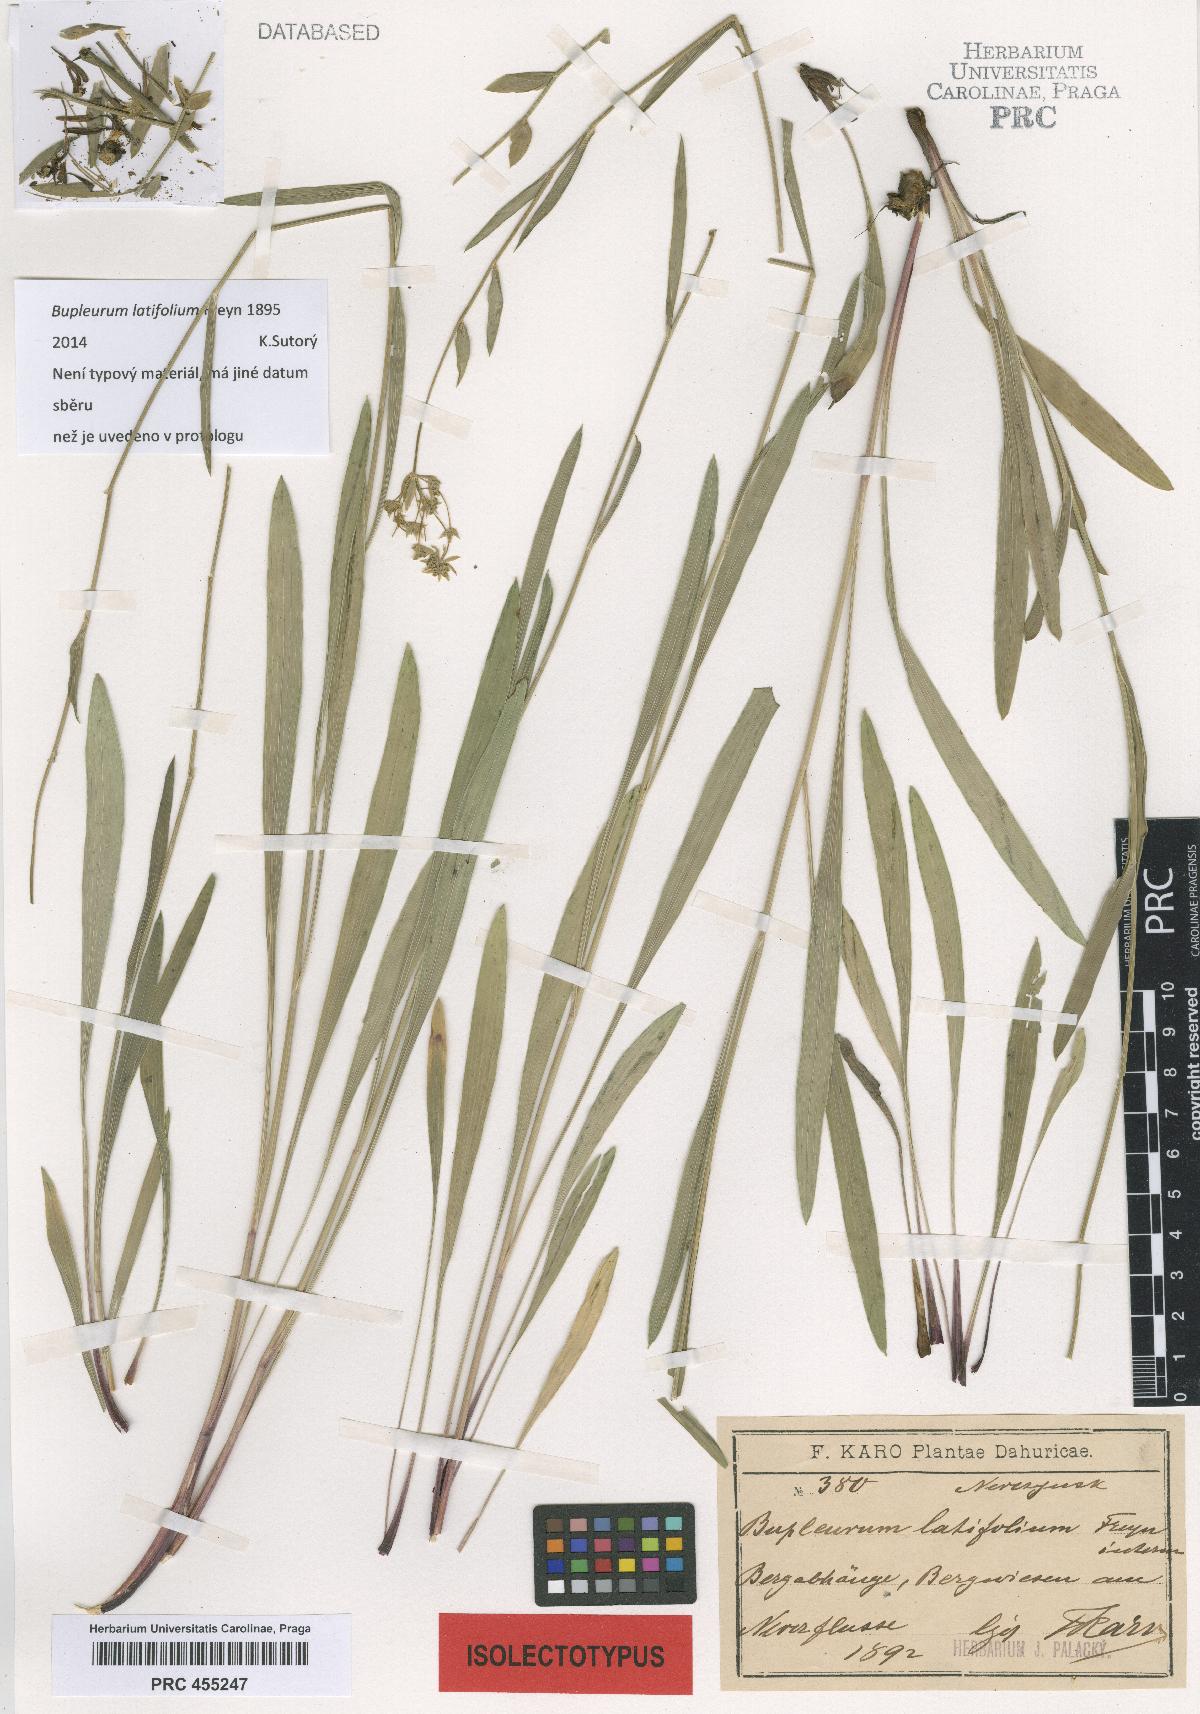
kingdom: Plantae
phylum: Tracheophyta
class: Magnoliopsida
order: Apiales
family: Apiaceae
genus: Bupleurum
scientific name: Bupleurum sibiricum
